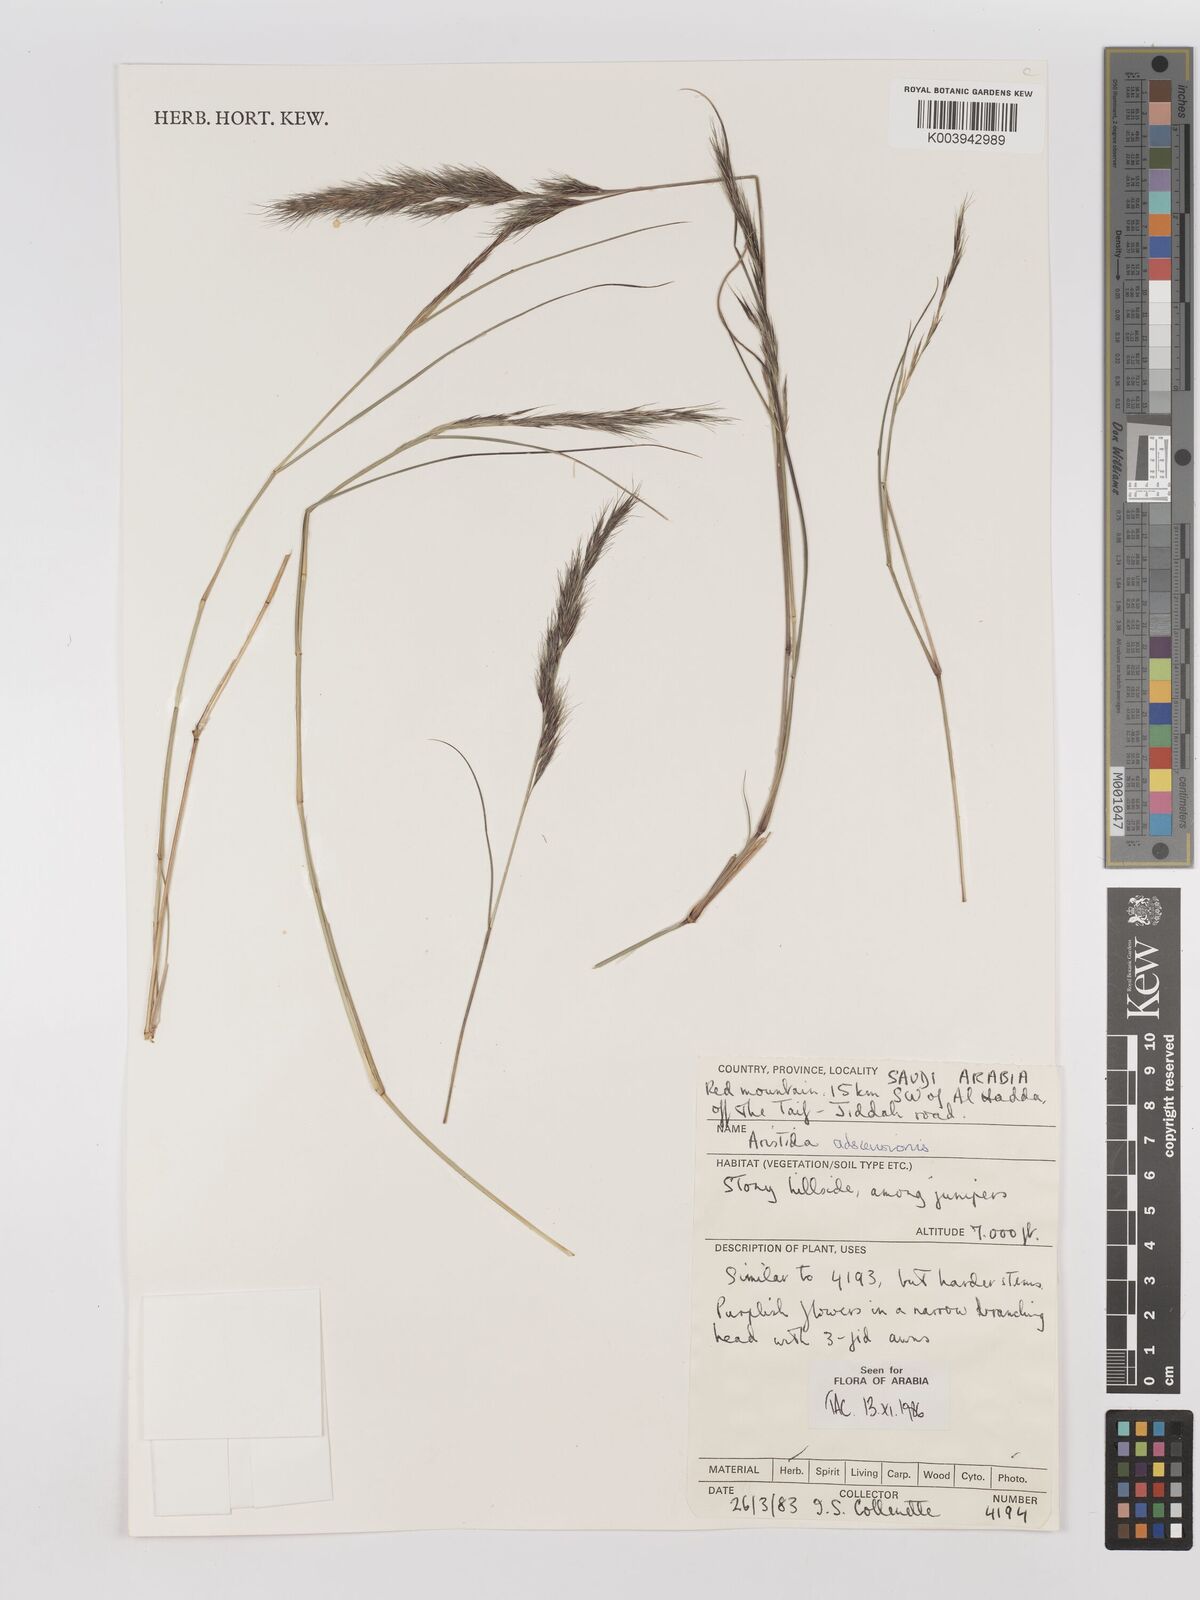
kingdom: Plantae
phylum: Tracheophyta
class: Liliopsida
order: Poales
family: Poaceae
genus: Aristida
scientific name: Aristida adscensionis
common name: Sixweeks threeawn
